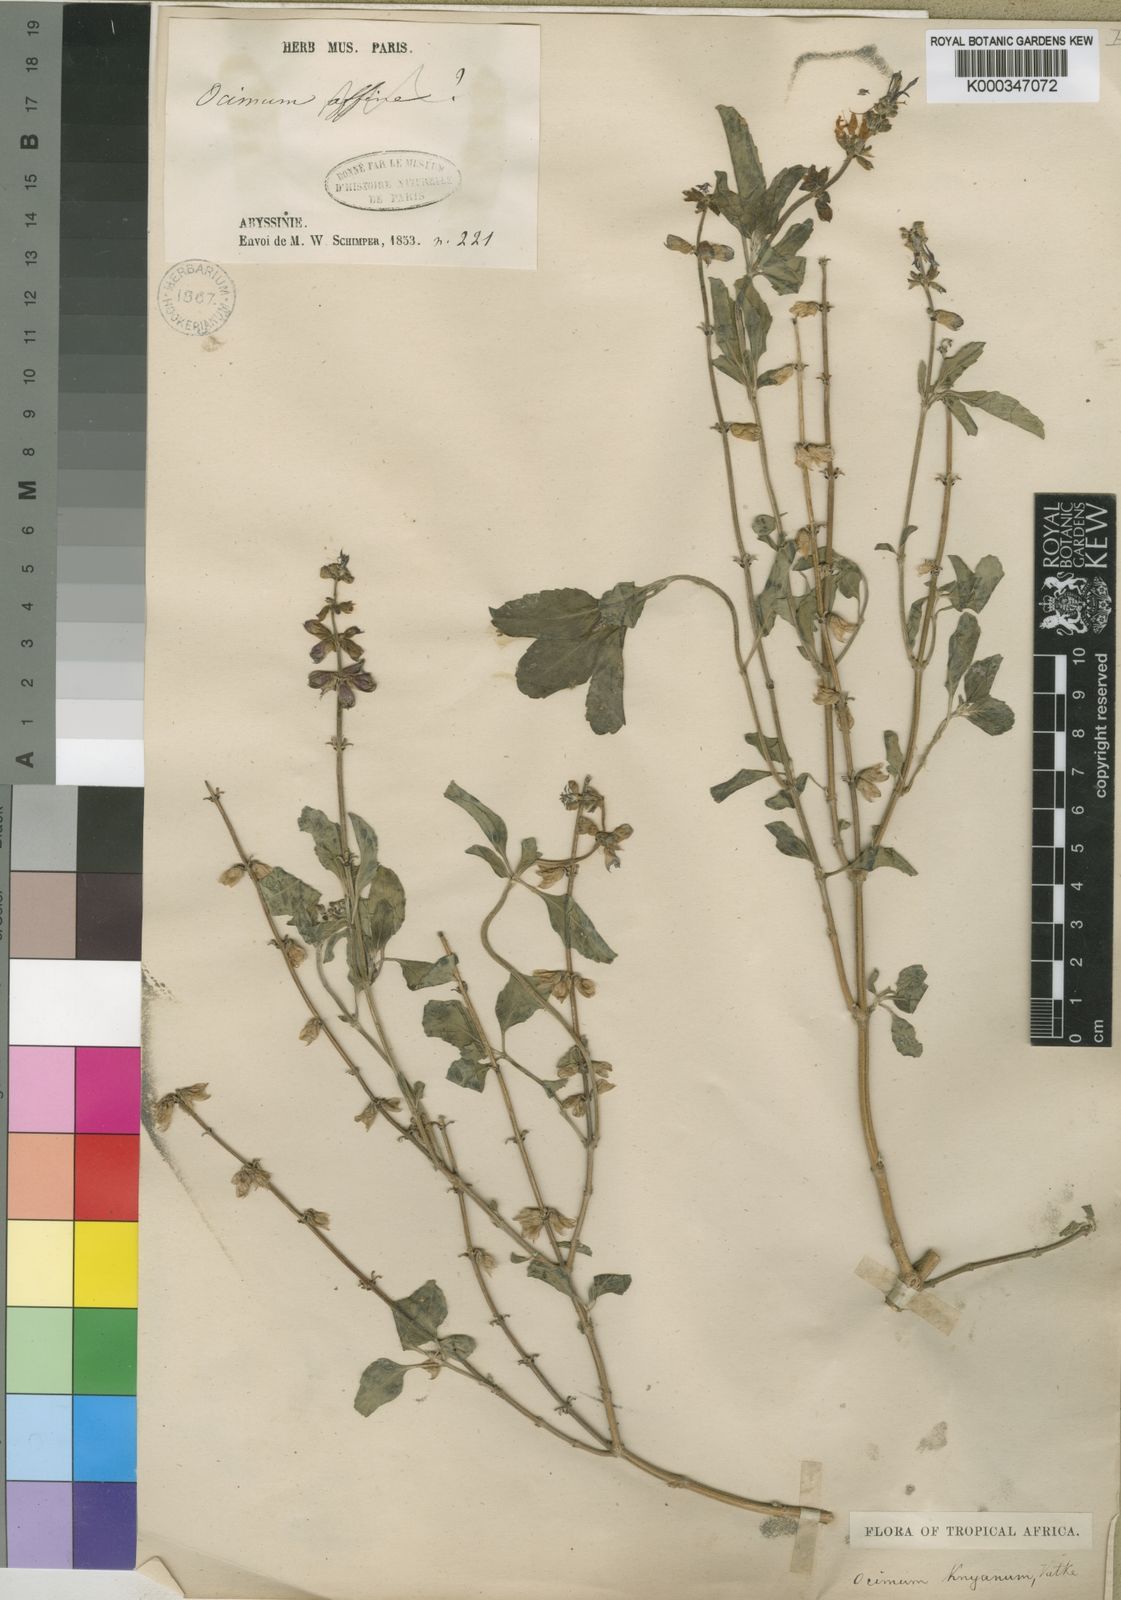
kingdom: Plantae
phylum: Tracheophyta
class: Magnoliopsida
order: Lamiales
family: Lamiaceae
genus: Ocimum
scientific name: Ocimum filamentosum
